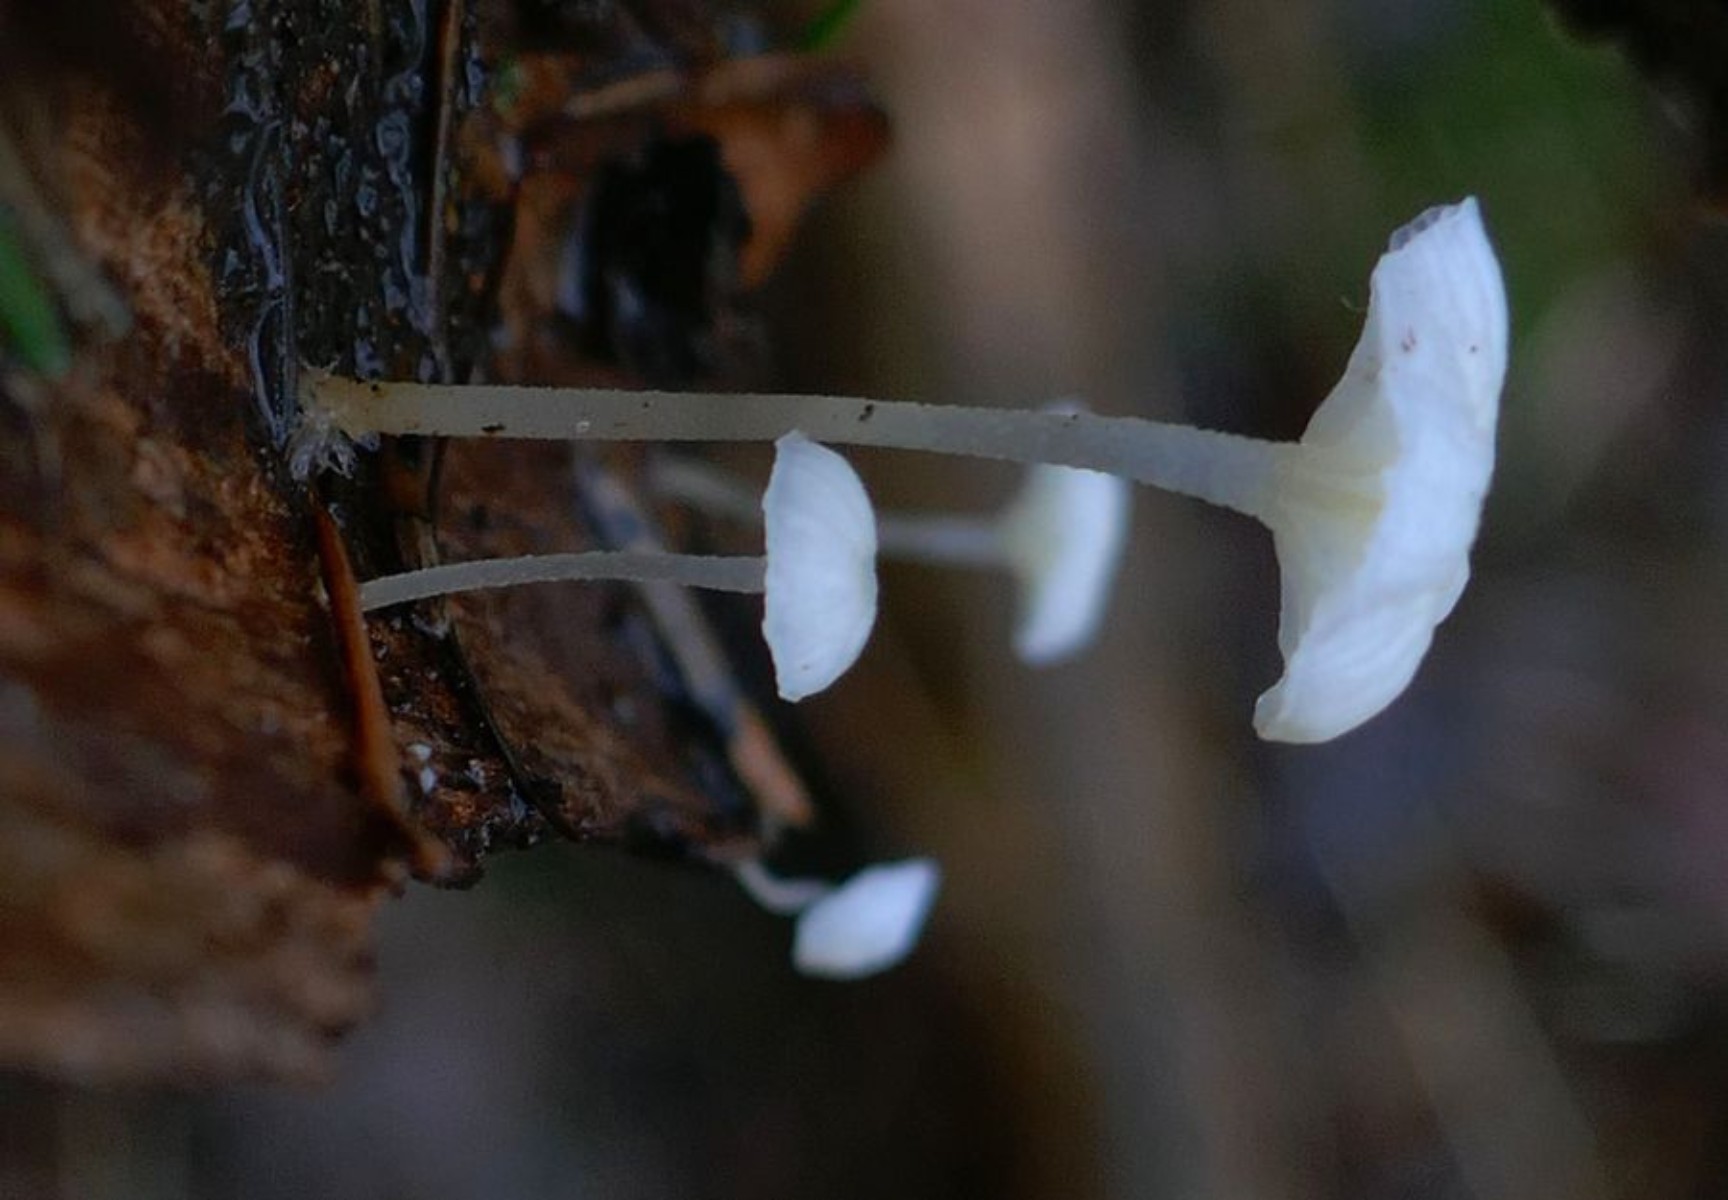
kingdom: Fungi
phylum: Basidiomycota
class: Agaricomycetes
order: Agaricales
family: Porotheleaceae
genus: Phloeomana
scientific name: Phloeomana speirea
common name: kvist-huesvamp
